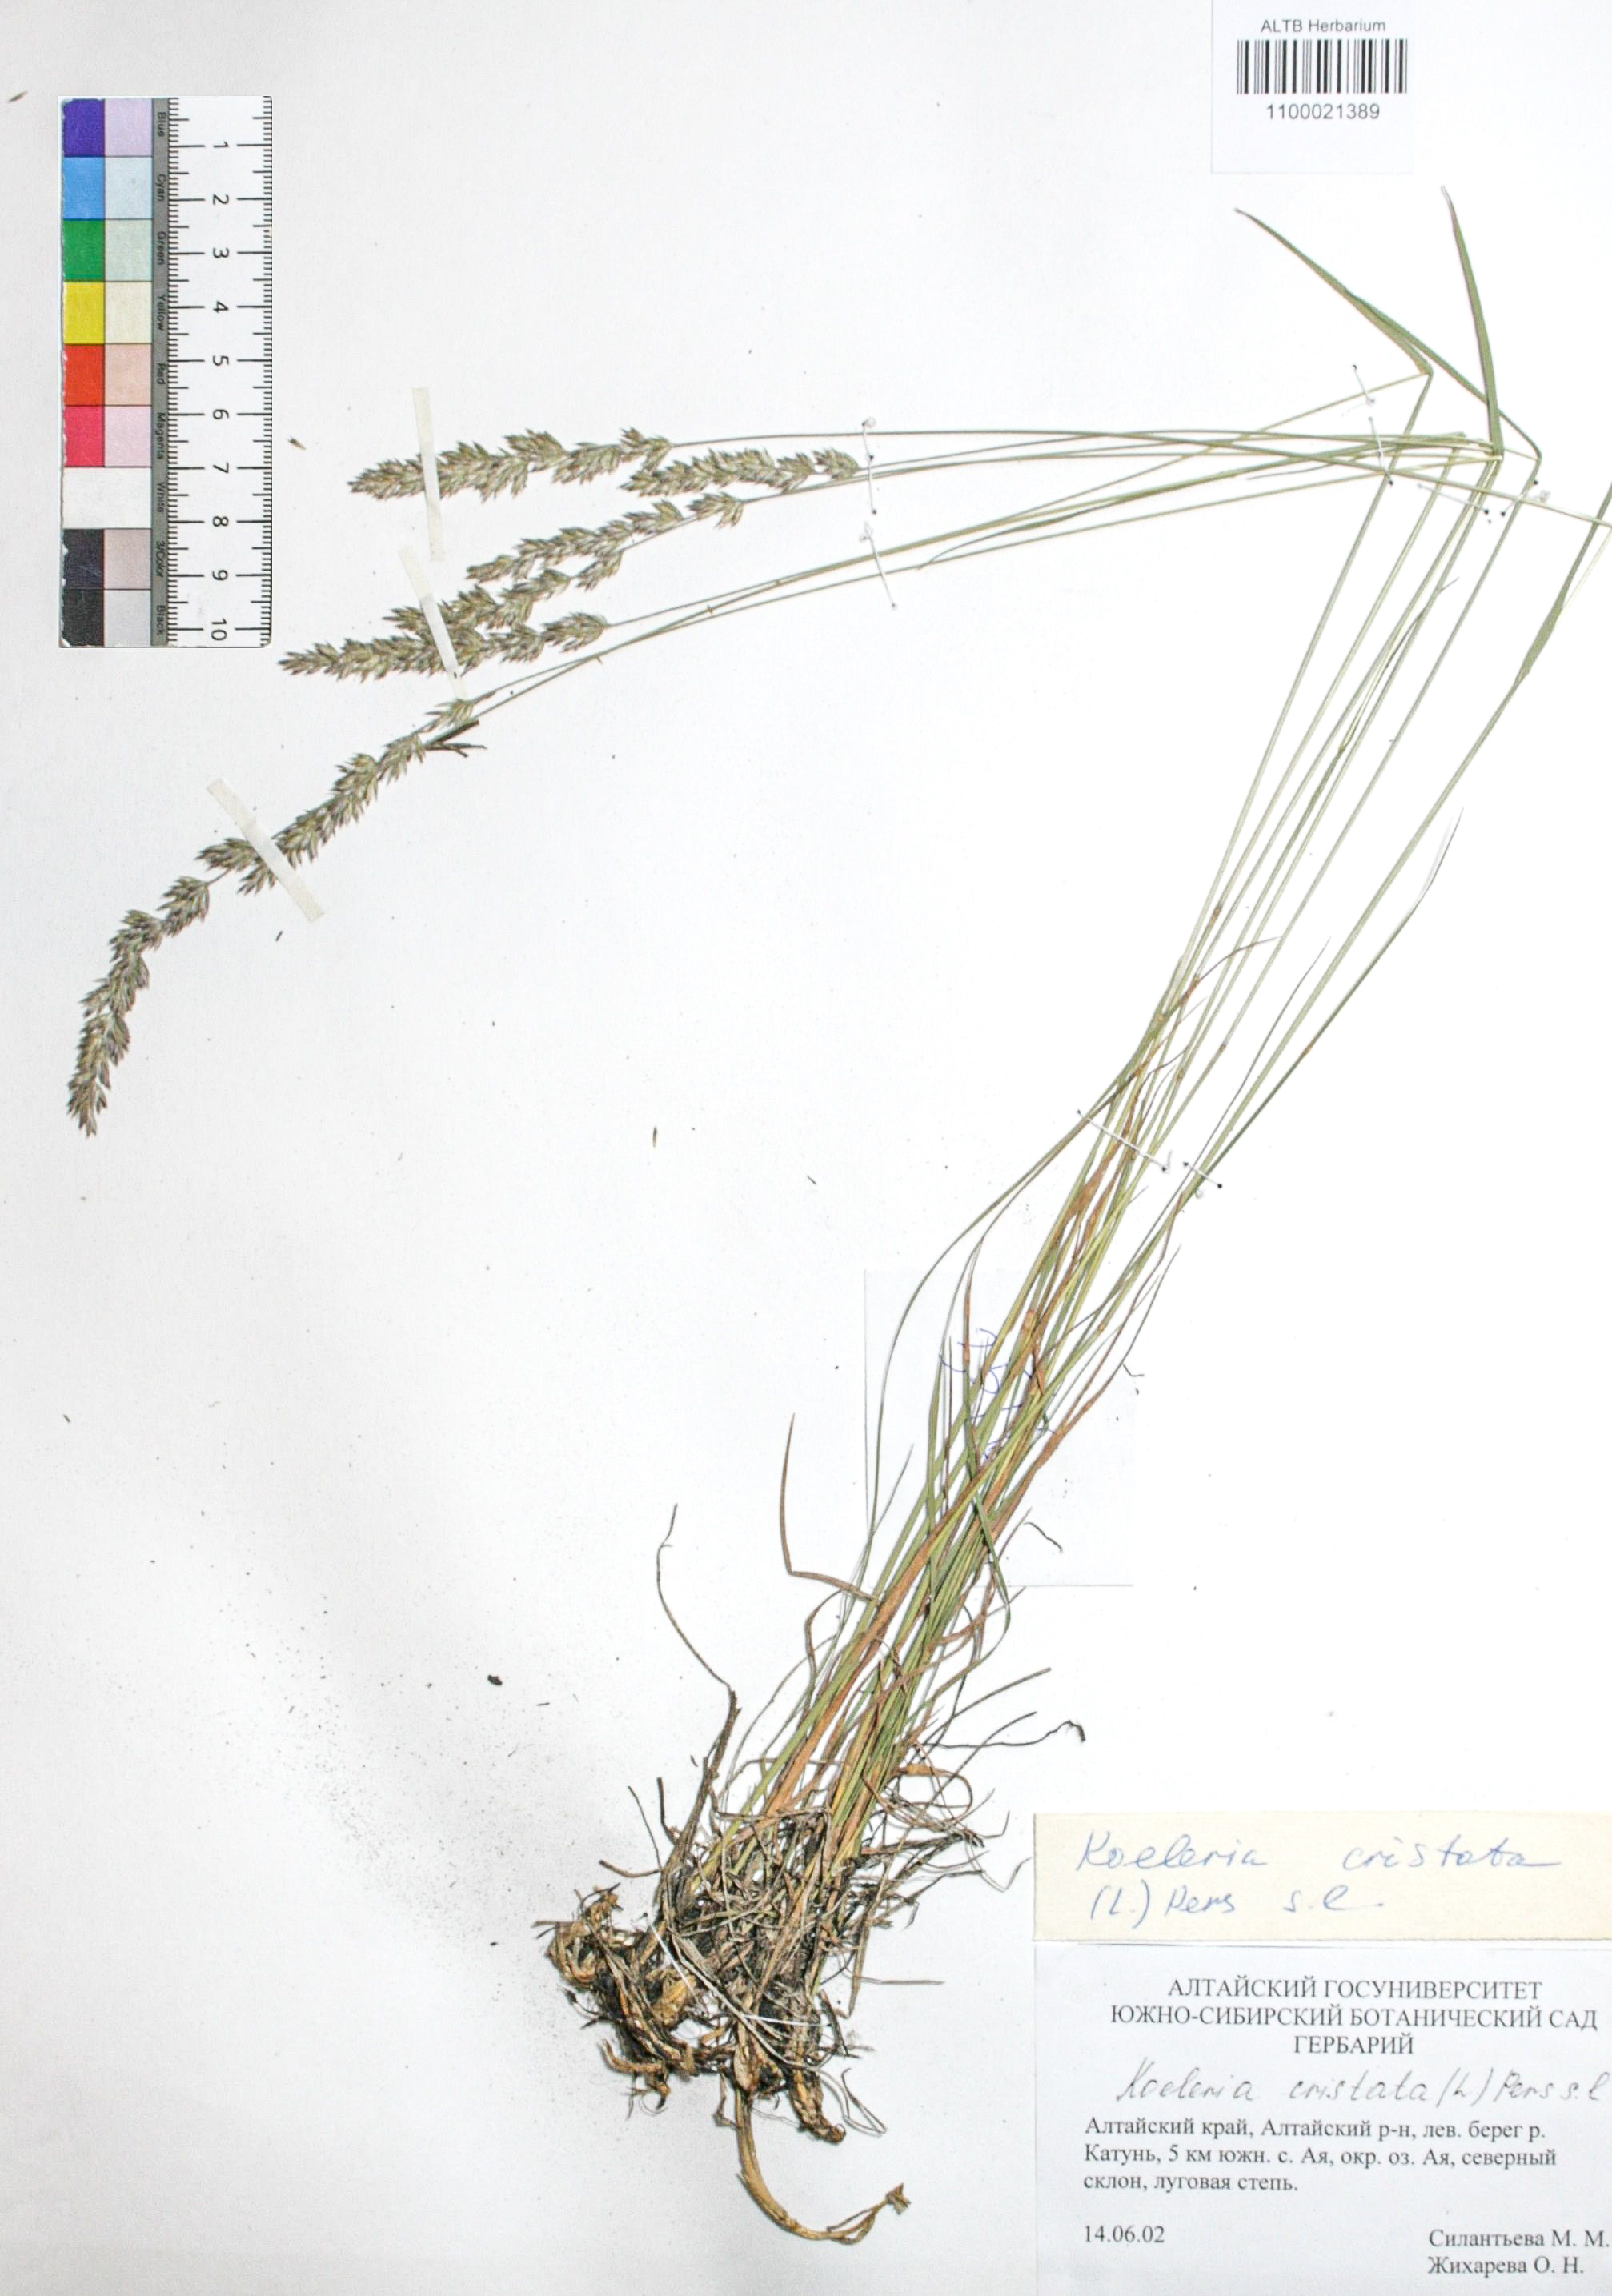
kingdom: Plantae
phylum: Tracheophyta
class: Liliopsida
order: Poales
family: Poaceae
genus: Koeleria
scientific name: Koeleria pyramidata
